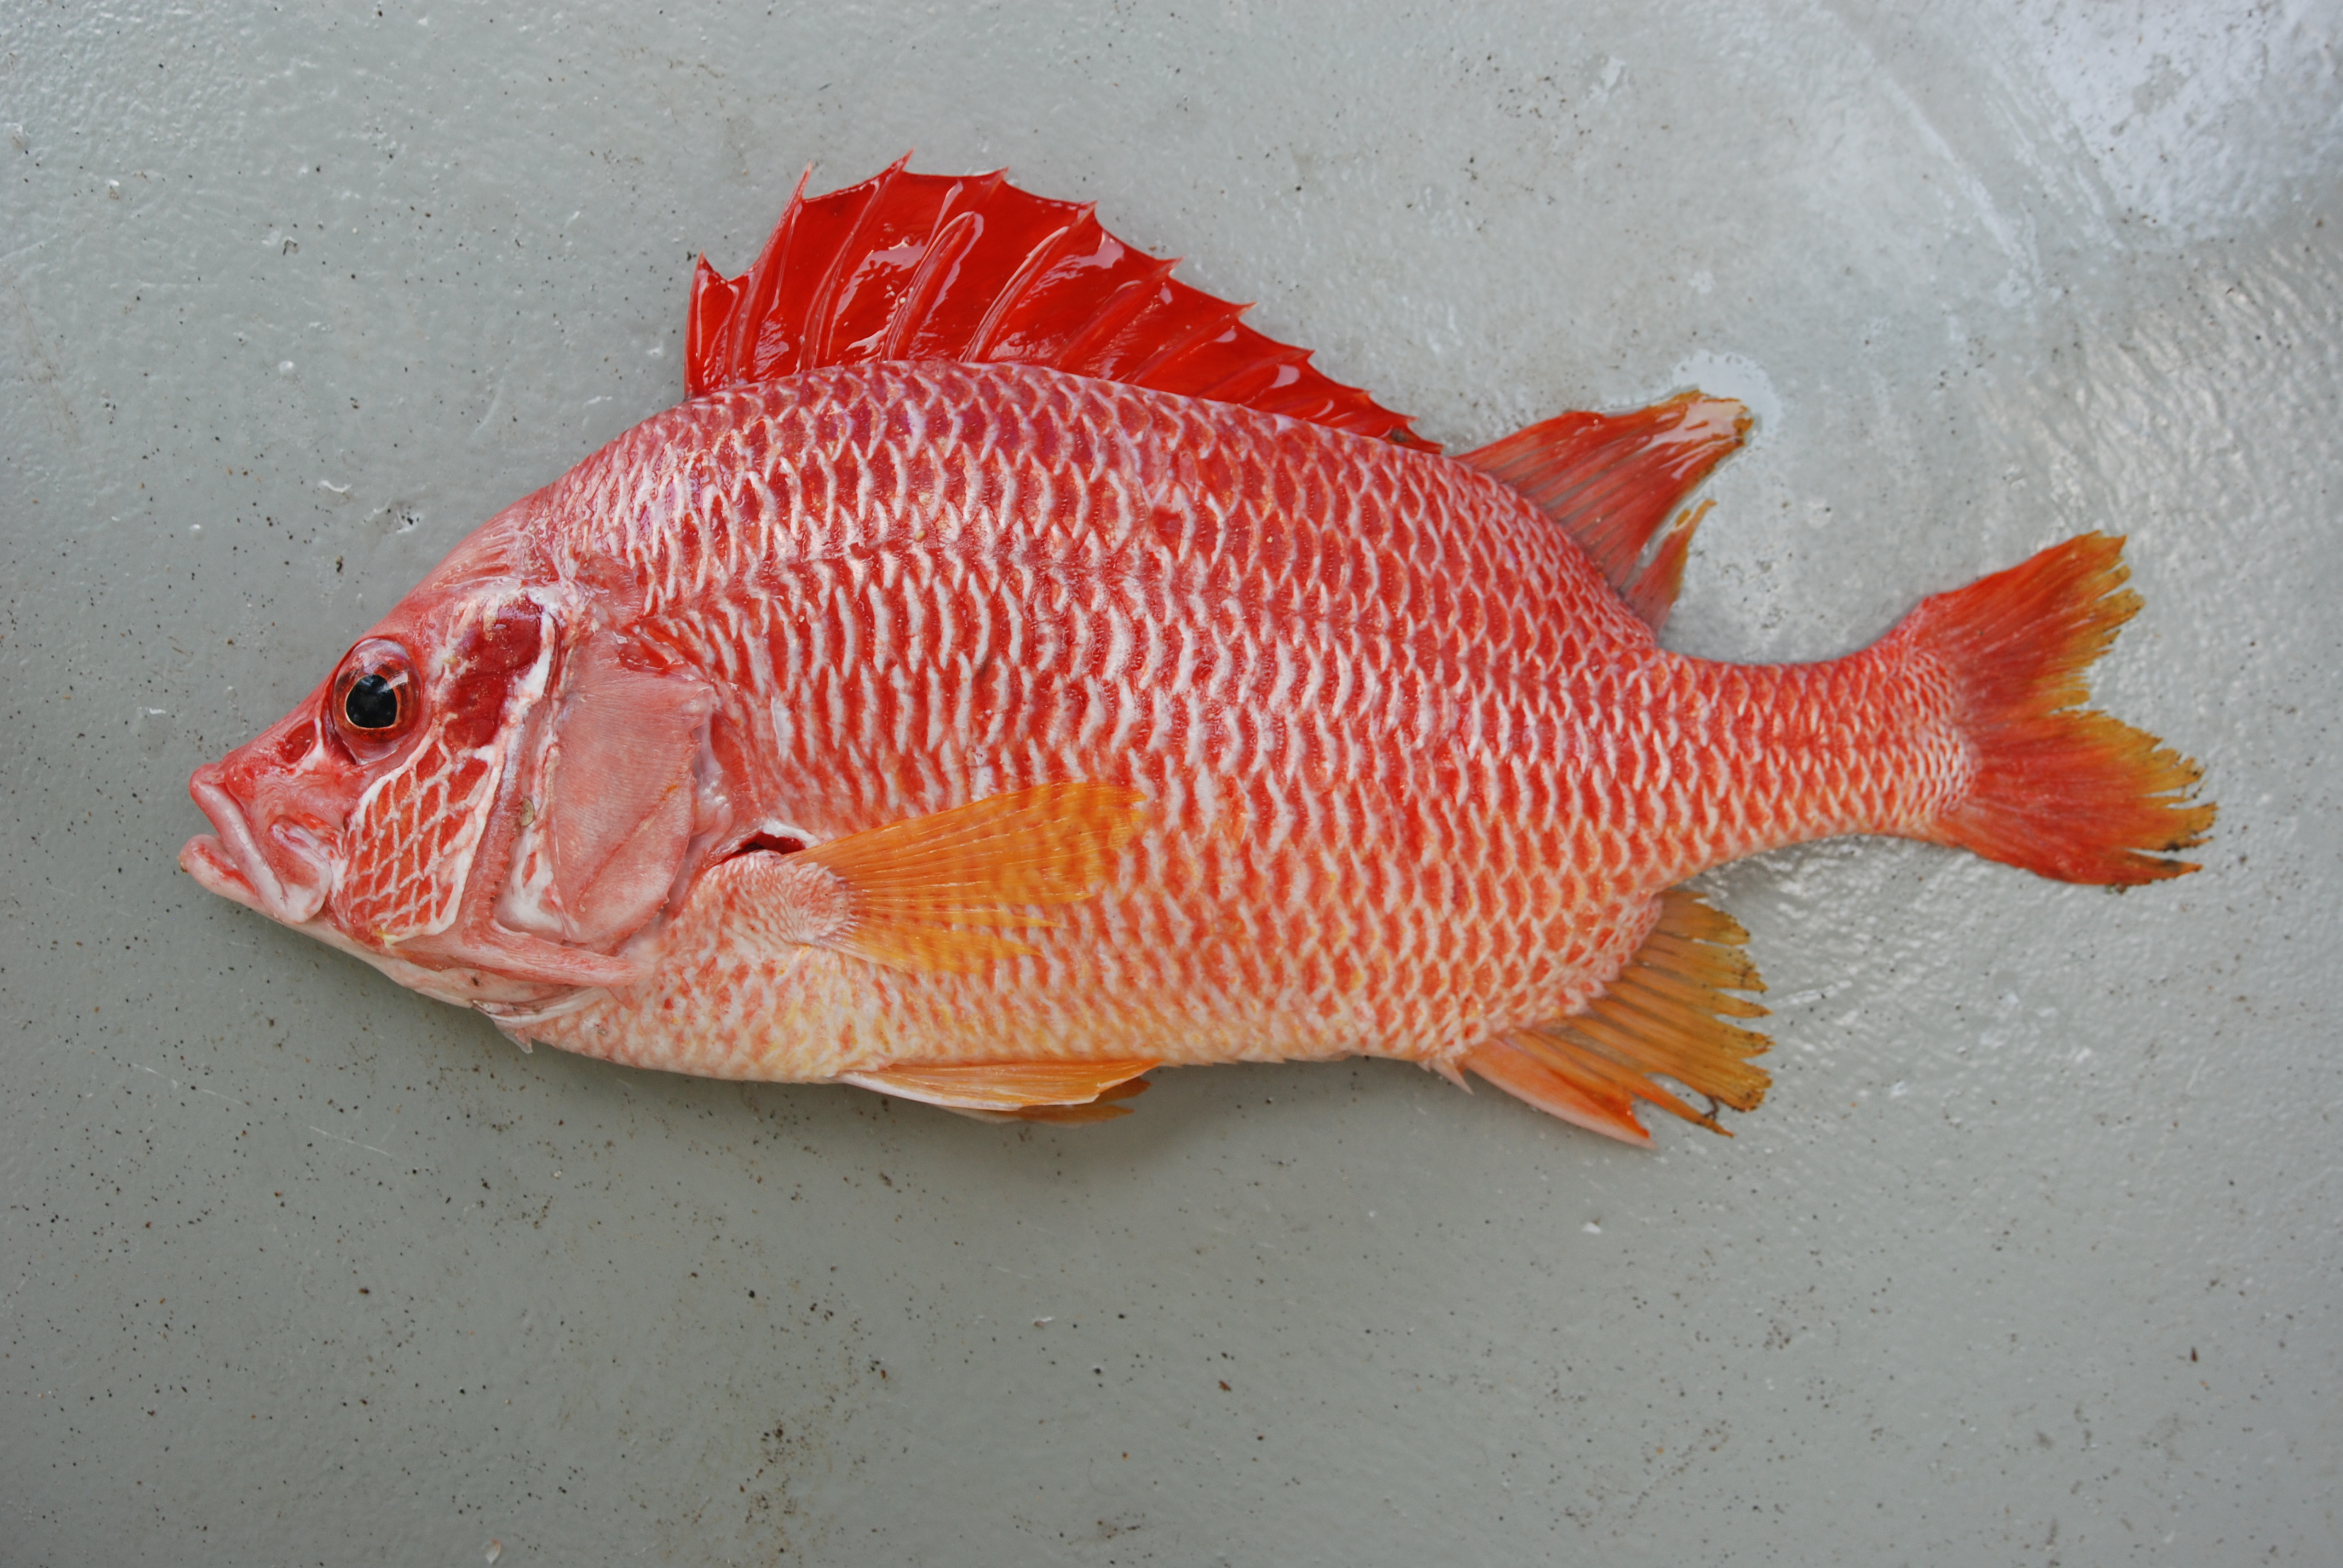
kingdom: Animalia
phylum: Chordata
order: Beryciformes
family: Holocentridae
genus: Sargocentron
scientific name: Sargocentron spiniferum
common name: Giant squirrelfish
